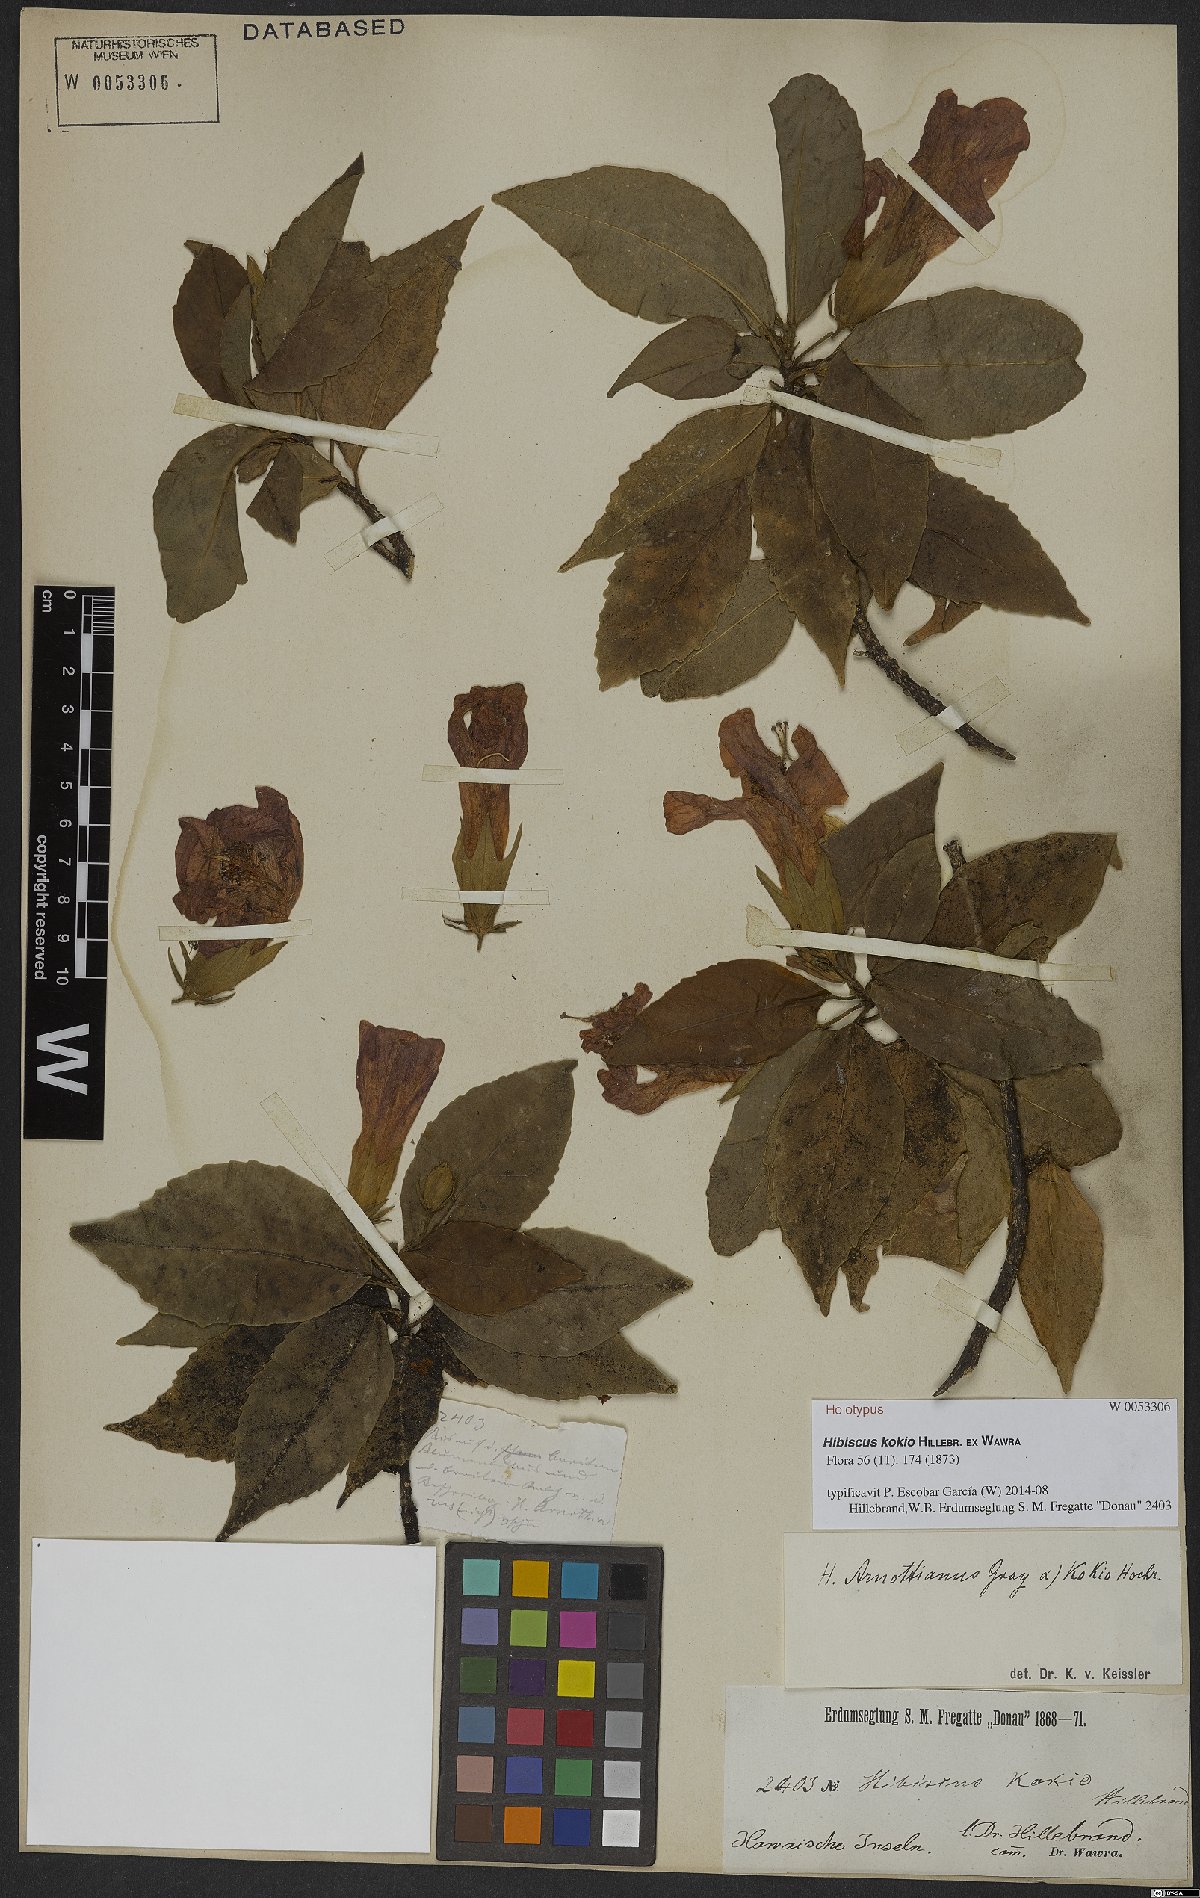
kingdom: Plantae
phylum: Tracheophyta
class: Magnoliopsida
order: Malvales
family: Malvaceae
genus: Hibiscus
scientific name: Hibiscus kokio
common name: Saint john's rosemallow
